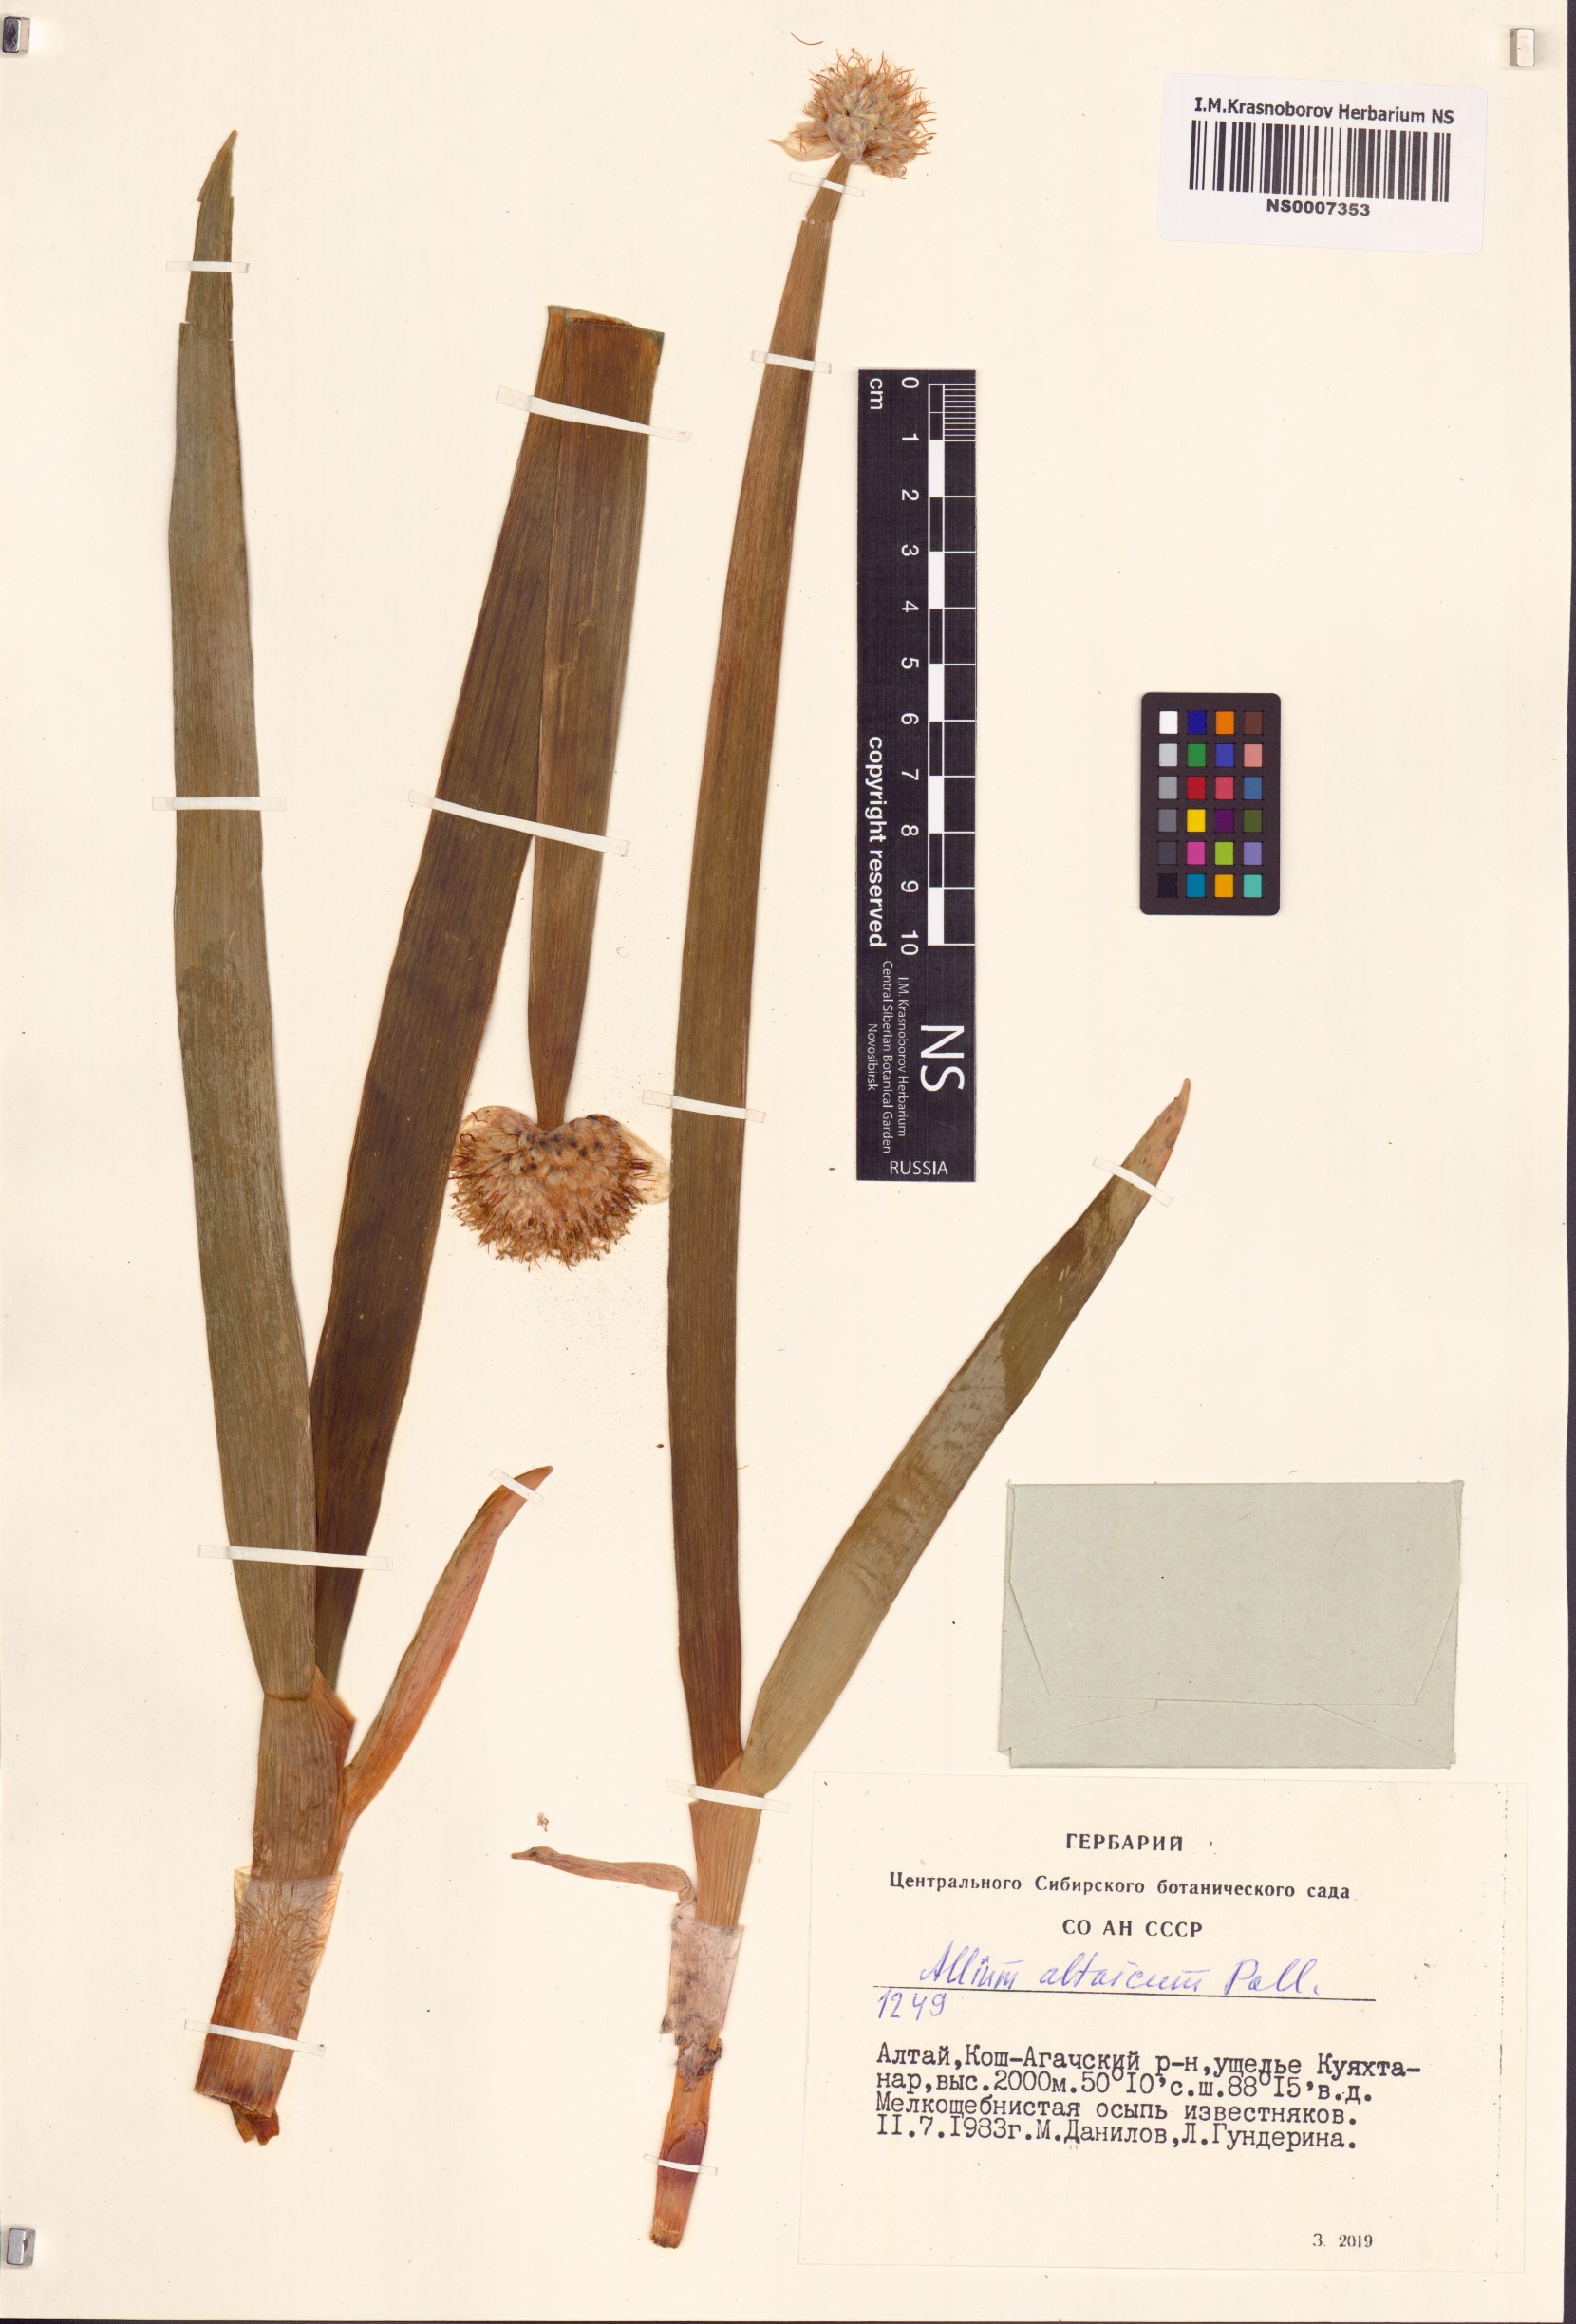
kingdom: Plantae
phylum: Tracheophyta
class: Liliopsida
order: Asparagales
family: Amaryllidaceae
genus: Allium
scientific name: Allium altaicum
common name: Altai onion
